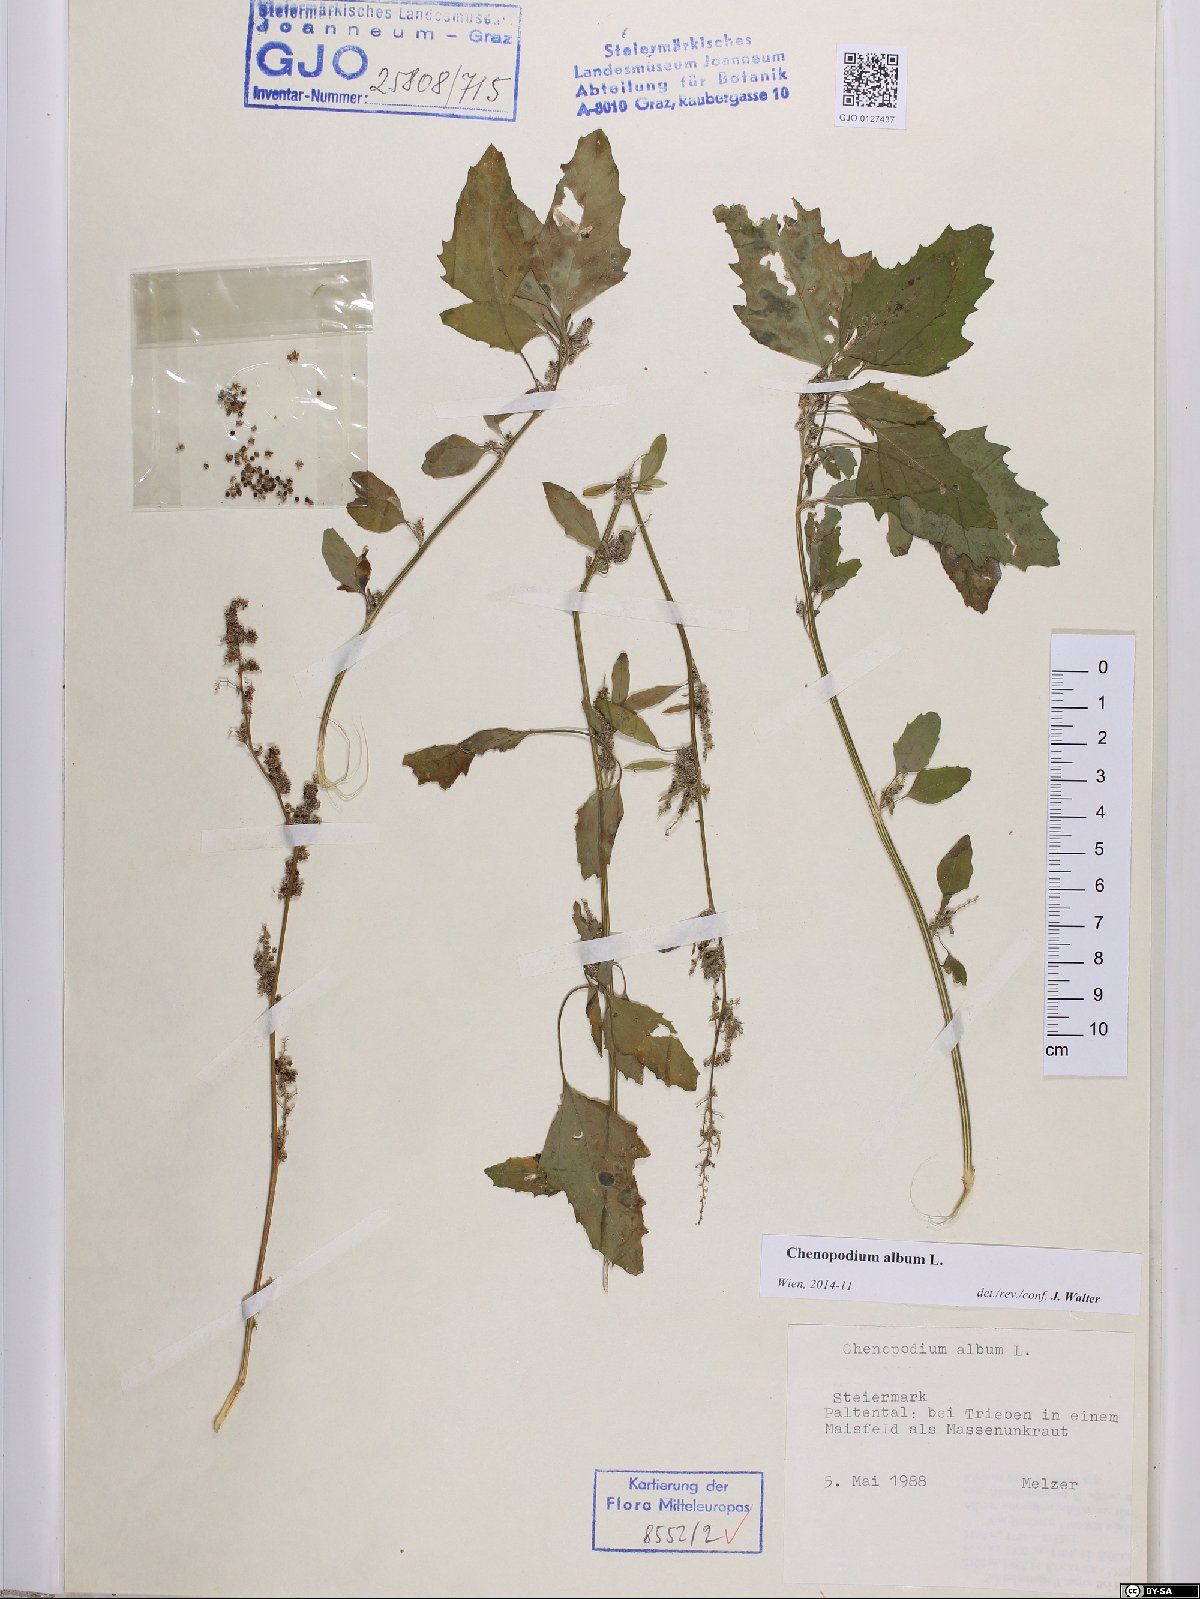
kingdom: Plantae
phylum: Tracheophyta
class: Magnoliopsida
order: Caryophyllales
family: Amaranthaceae
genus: Chenopodium
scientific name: Chenopodium album
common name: Fat-hen
